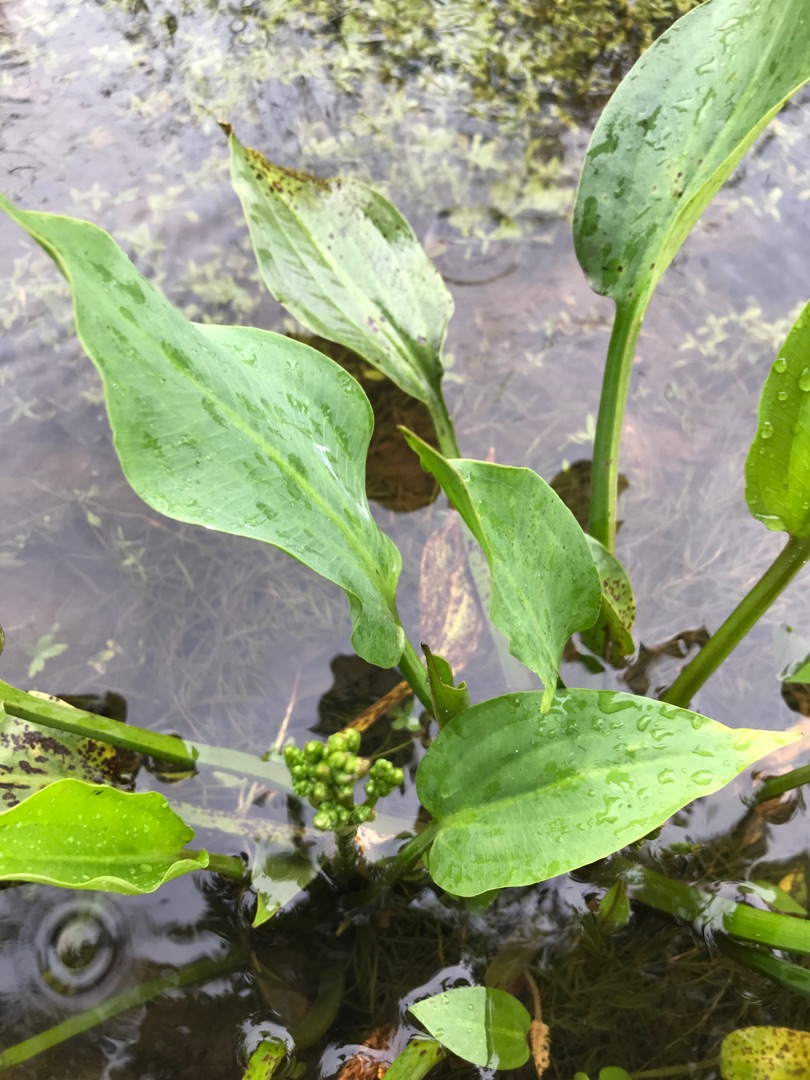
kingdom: Plantae
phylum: Tracheophyta
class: Liliopsida
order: Alismatales
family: Alismataceae
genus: Alisma
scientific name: Alisma plantago-aquatica
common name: Vejbred-skeblad
